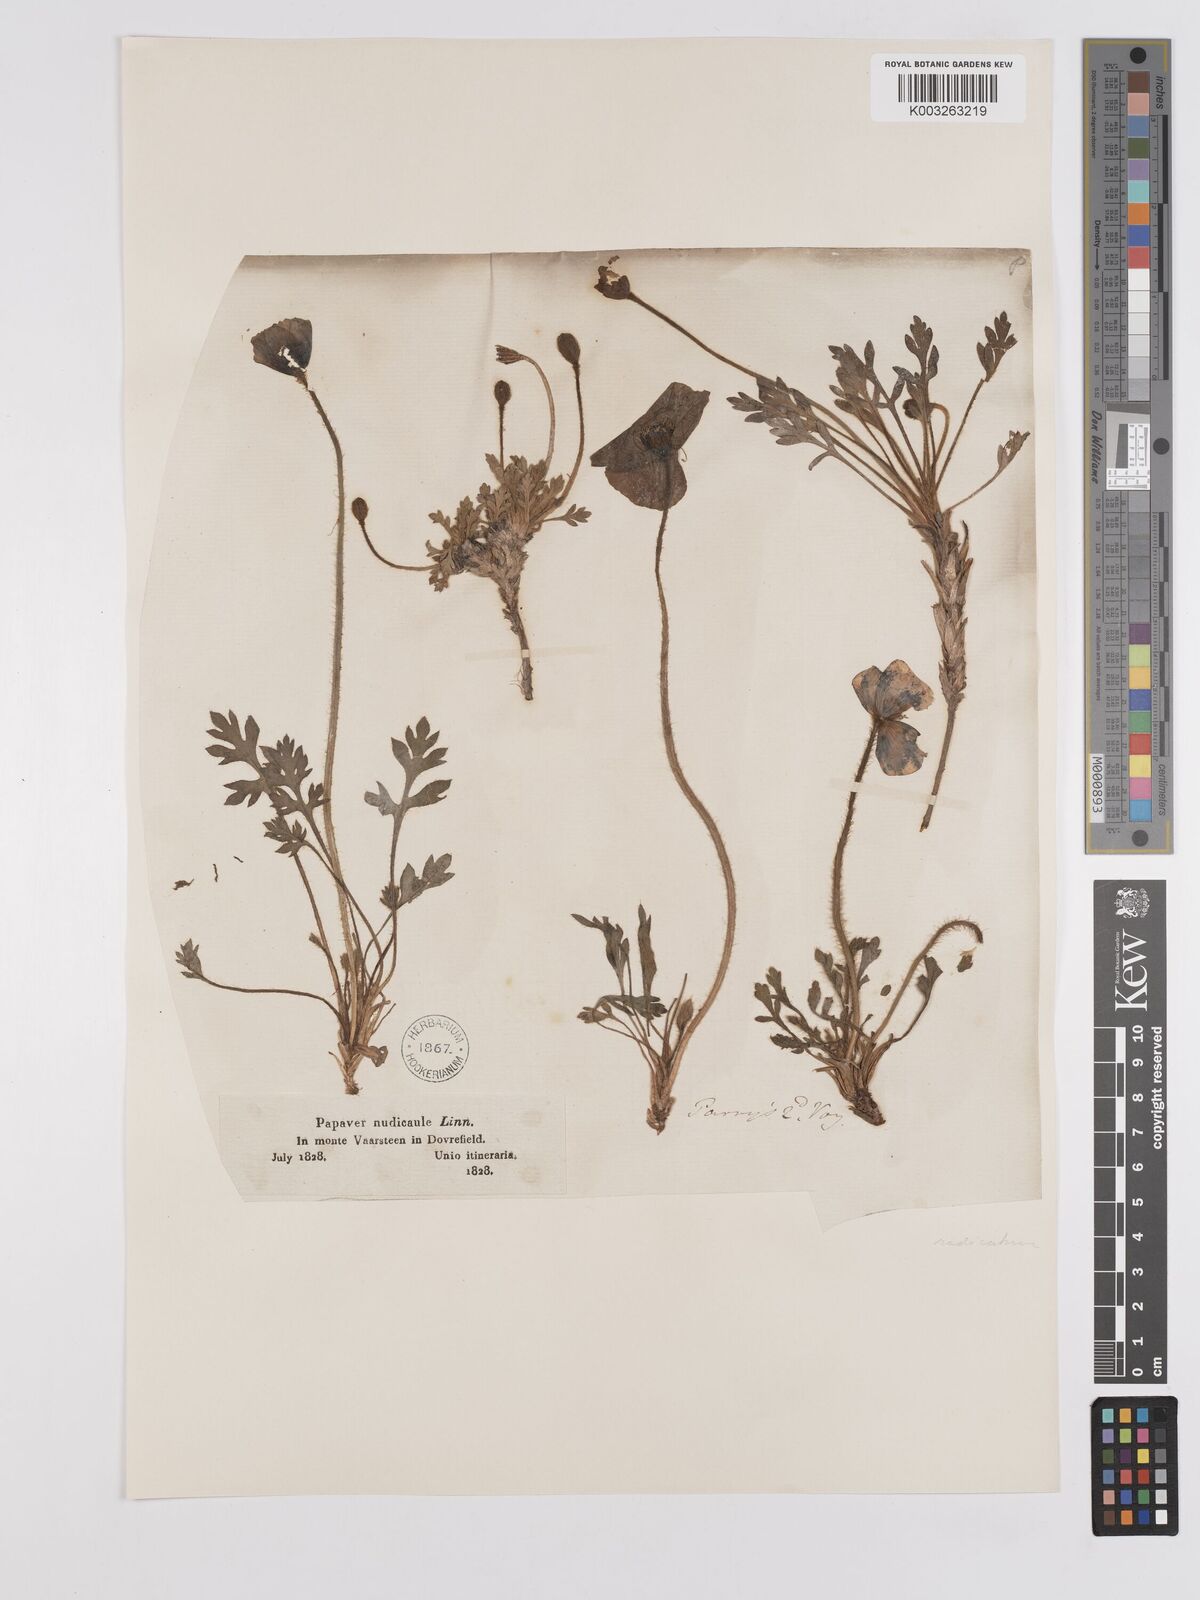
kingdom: Plantae
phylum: Tracheophyta
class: Magnoliopsida
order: Ranunculales
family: Papaveraceae
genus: Papaver
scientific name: Papaver radicatum
